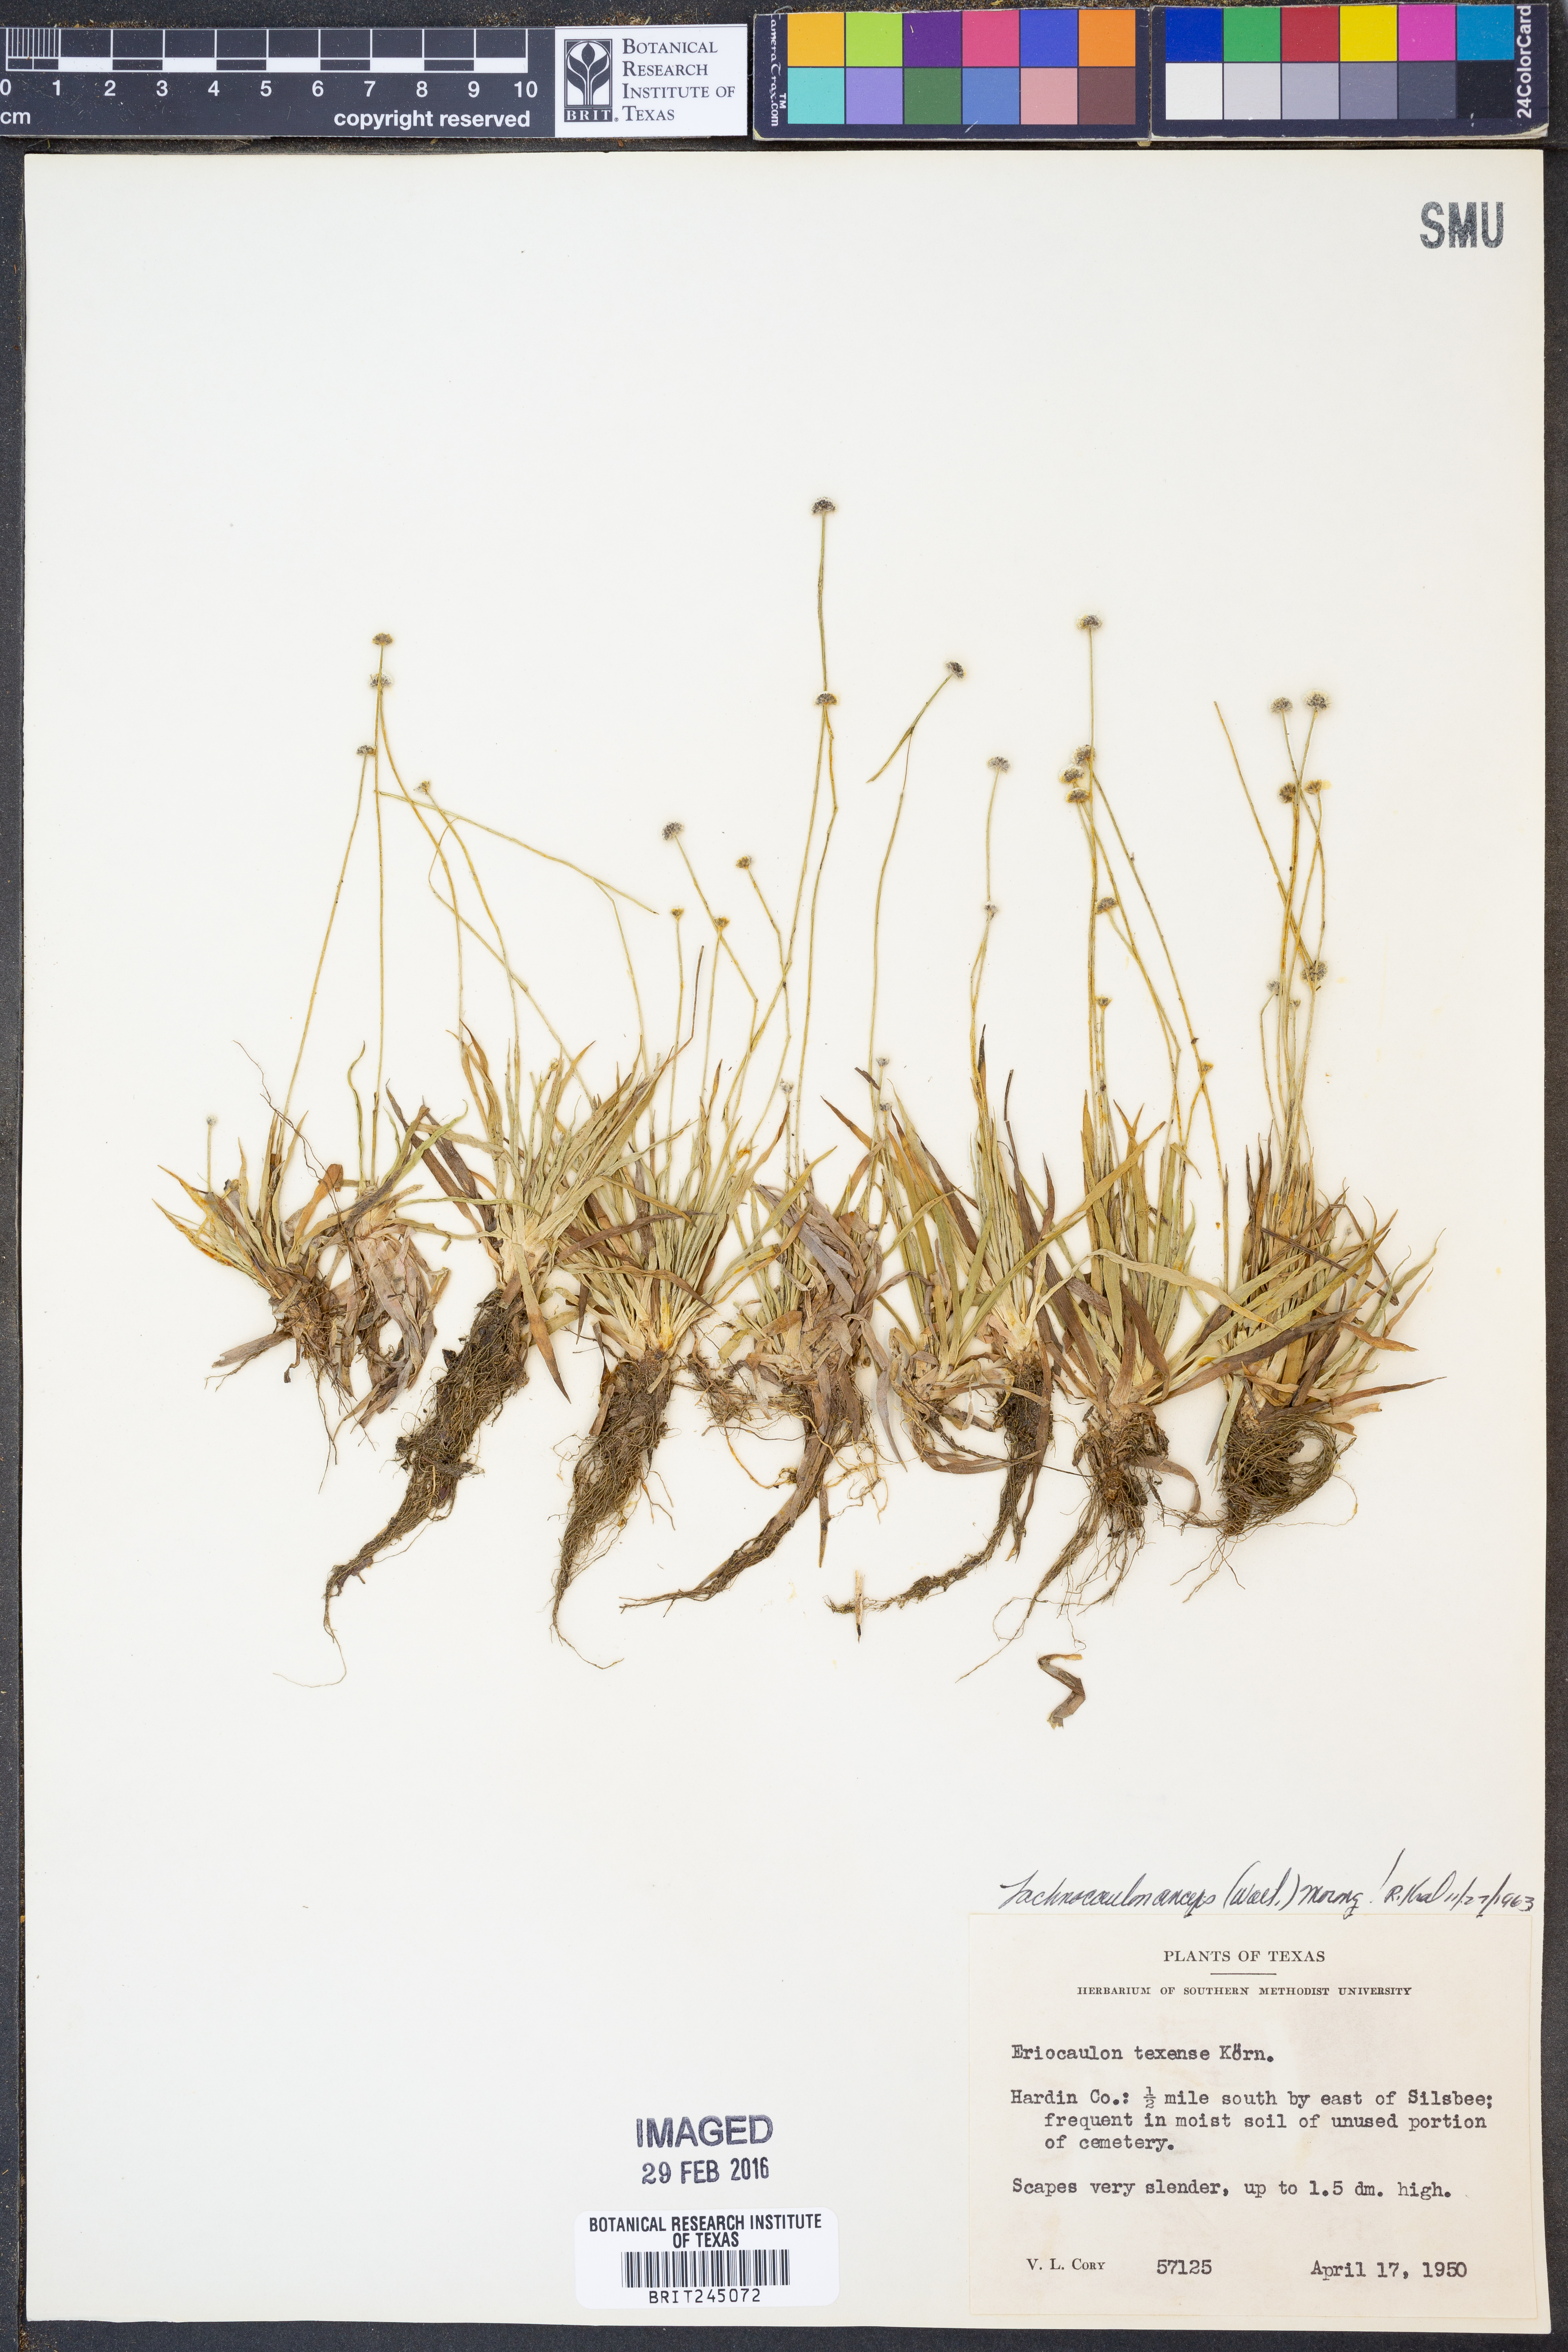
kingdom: Plantae
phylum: Tracheophyta
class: Liliopsida
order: Poales
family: Eriocaulaceae
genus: Paepalanthus
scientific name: Paepalanthus anceps
